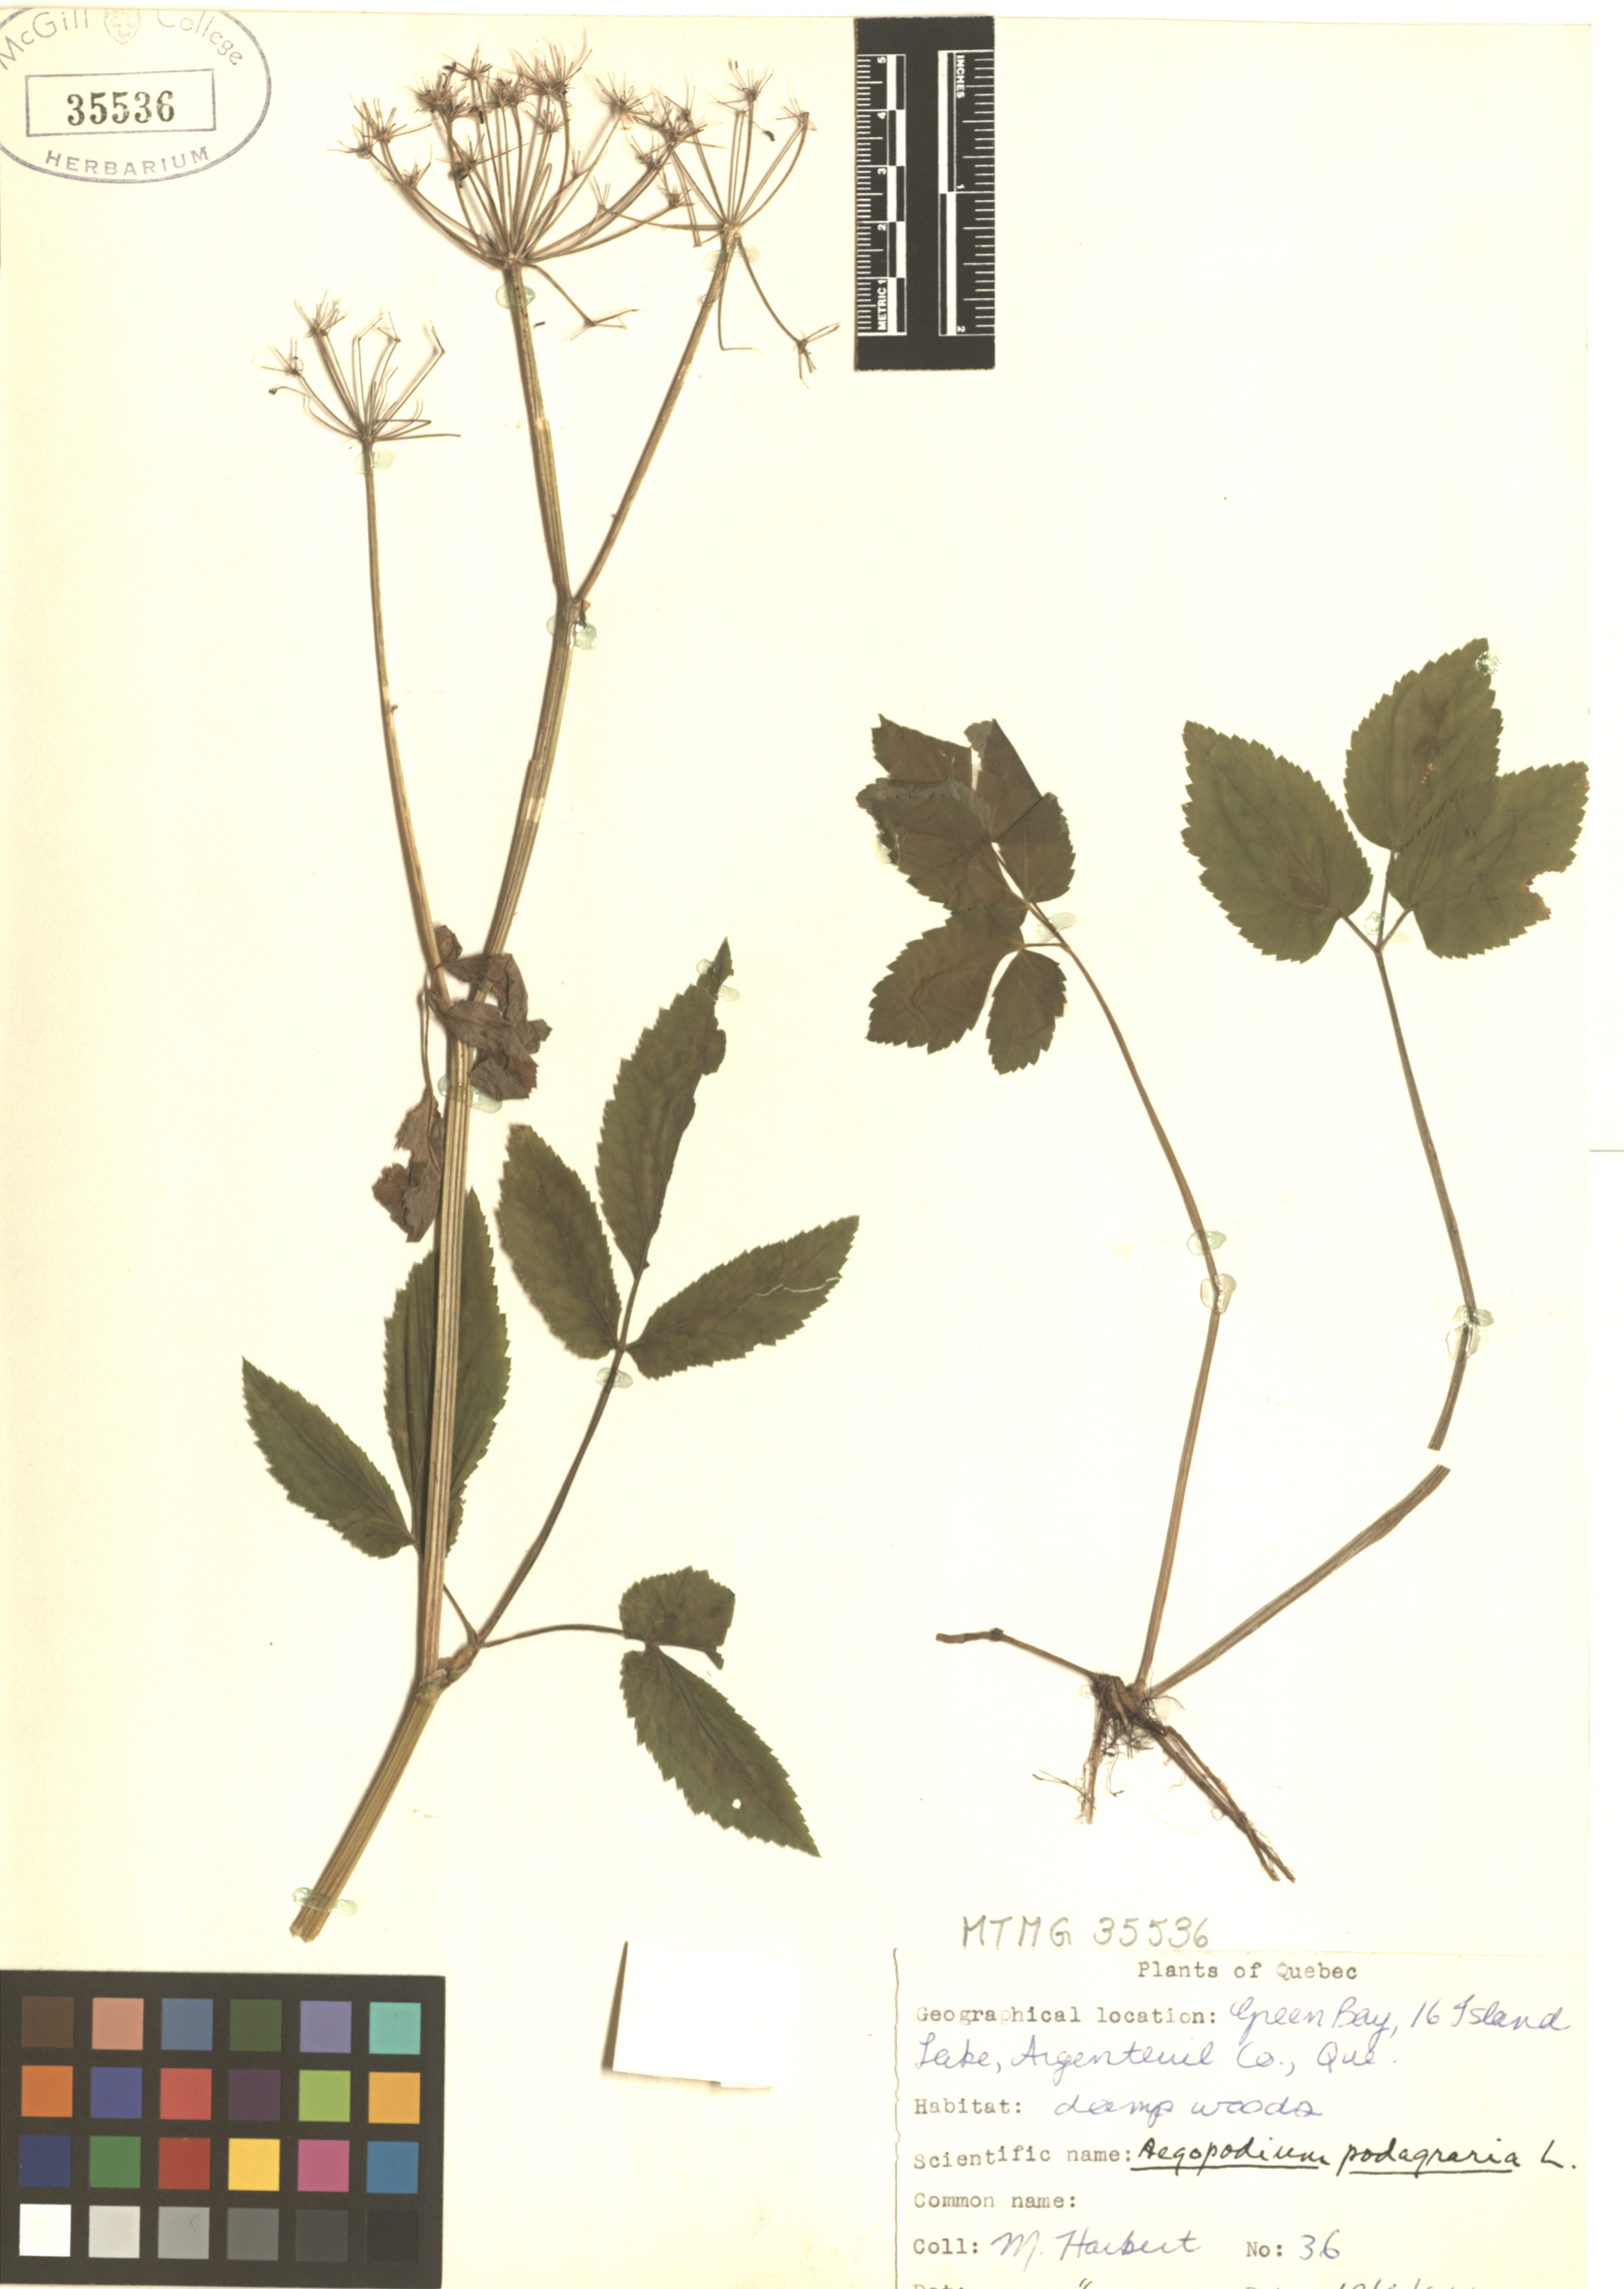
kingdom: Plantae
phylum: Tracheophyta
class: Magnoliopsida
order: Apiales
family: Apiaceae
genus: Aegopodium
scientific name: Aegopodium podagraria
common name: Ground-elder
